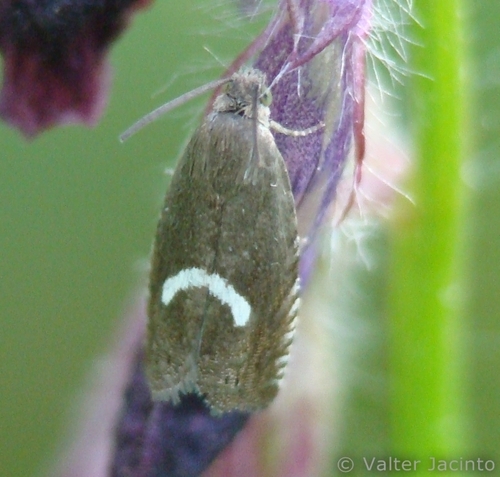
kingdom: Animalia
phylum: Arthropoda
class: Insecta
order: Lepidoptera
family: Tortricidae
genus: Grapholita
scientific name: Grapholita lunulana
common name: Northern crescent piercer
